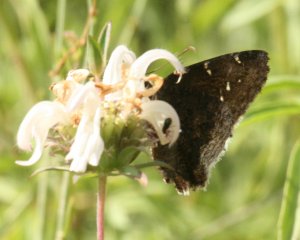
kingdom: Animalia
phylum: Arthropoda
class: Insecta
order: Lepidoptera
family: Hesperiidae
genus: Achalarus
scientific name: Achalarus casica
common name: Desert Cloudywing
